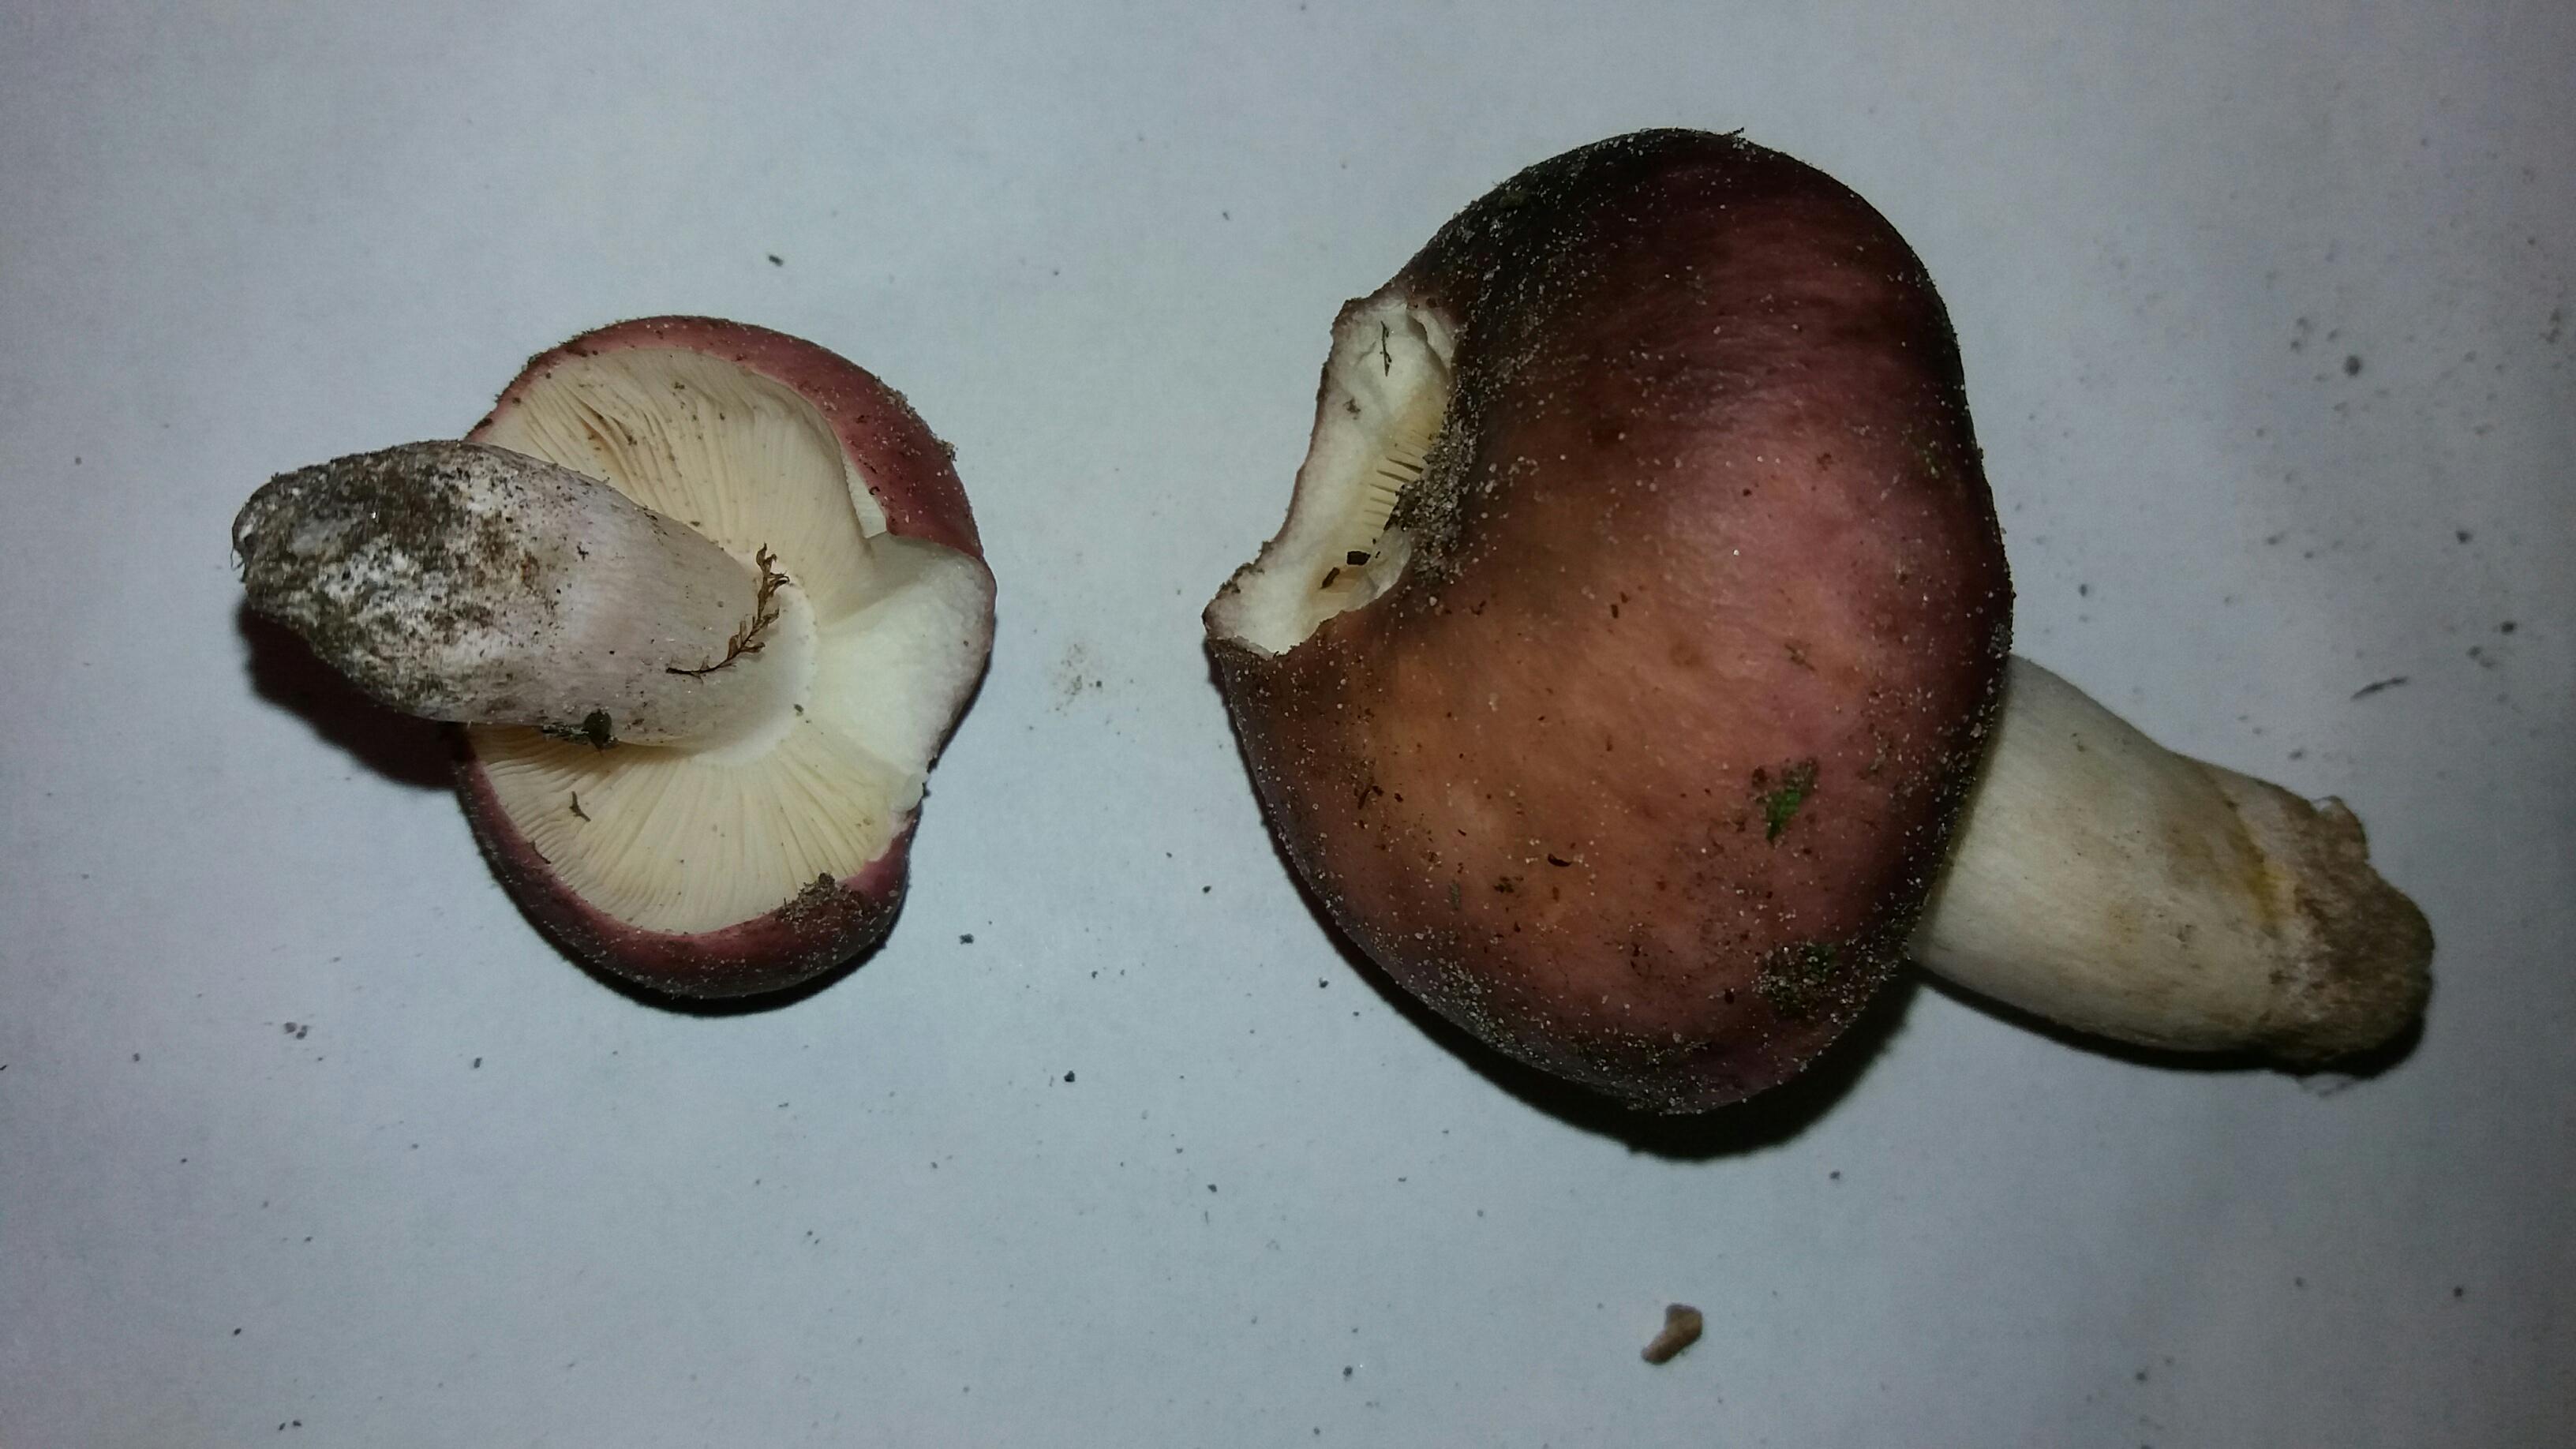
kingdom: Fungi
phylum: Basidiomycota
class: Agaricomycetes
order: Russulales
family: Russulaceae
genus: Russula
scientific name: Russula cyanoxantha
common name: broget skørhat
